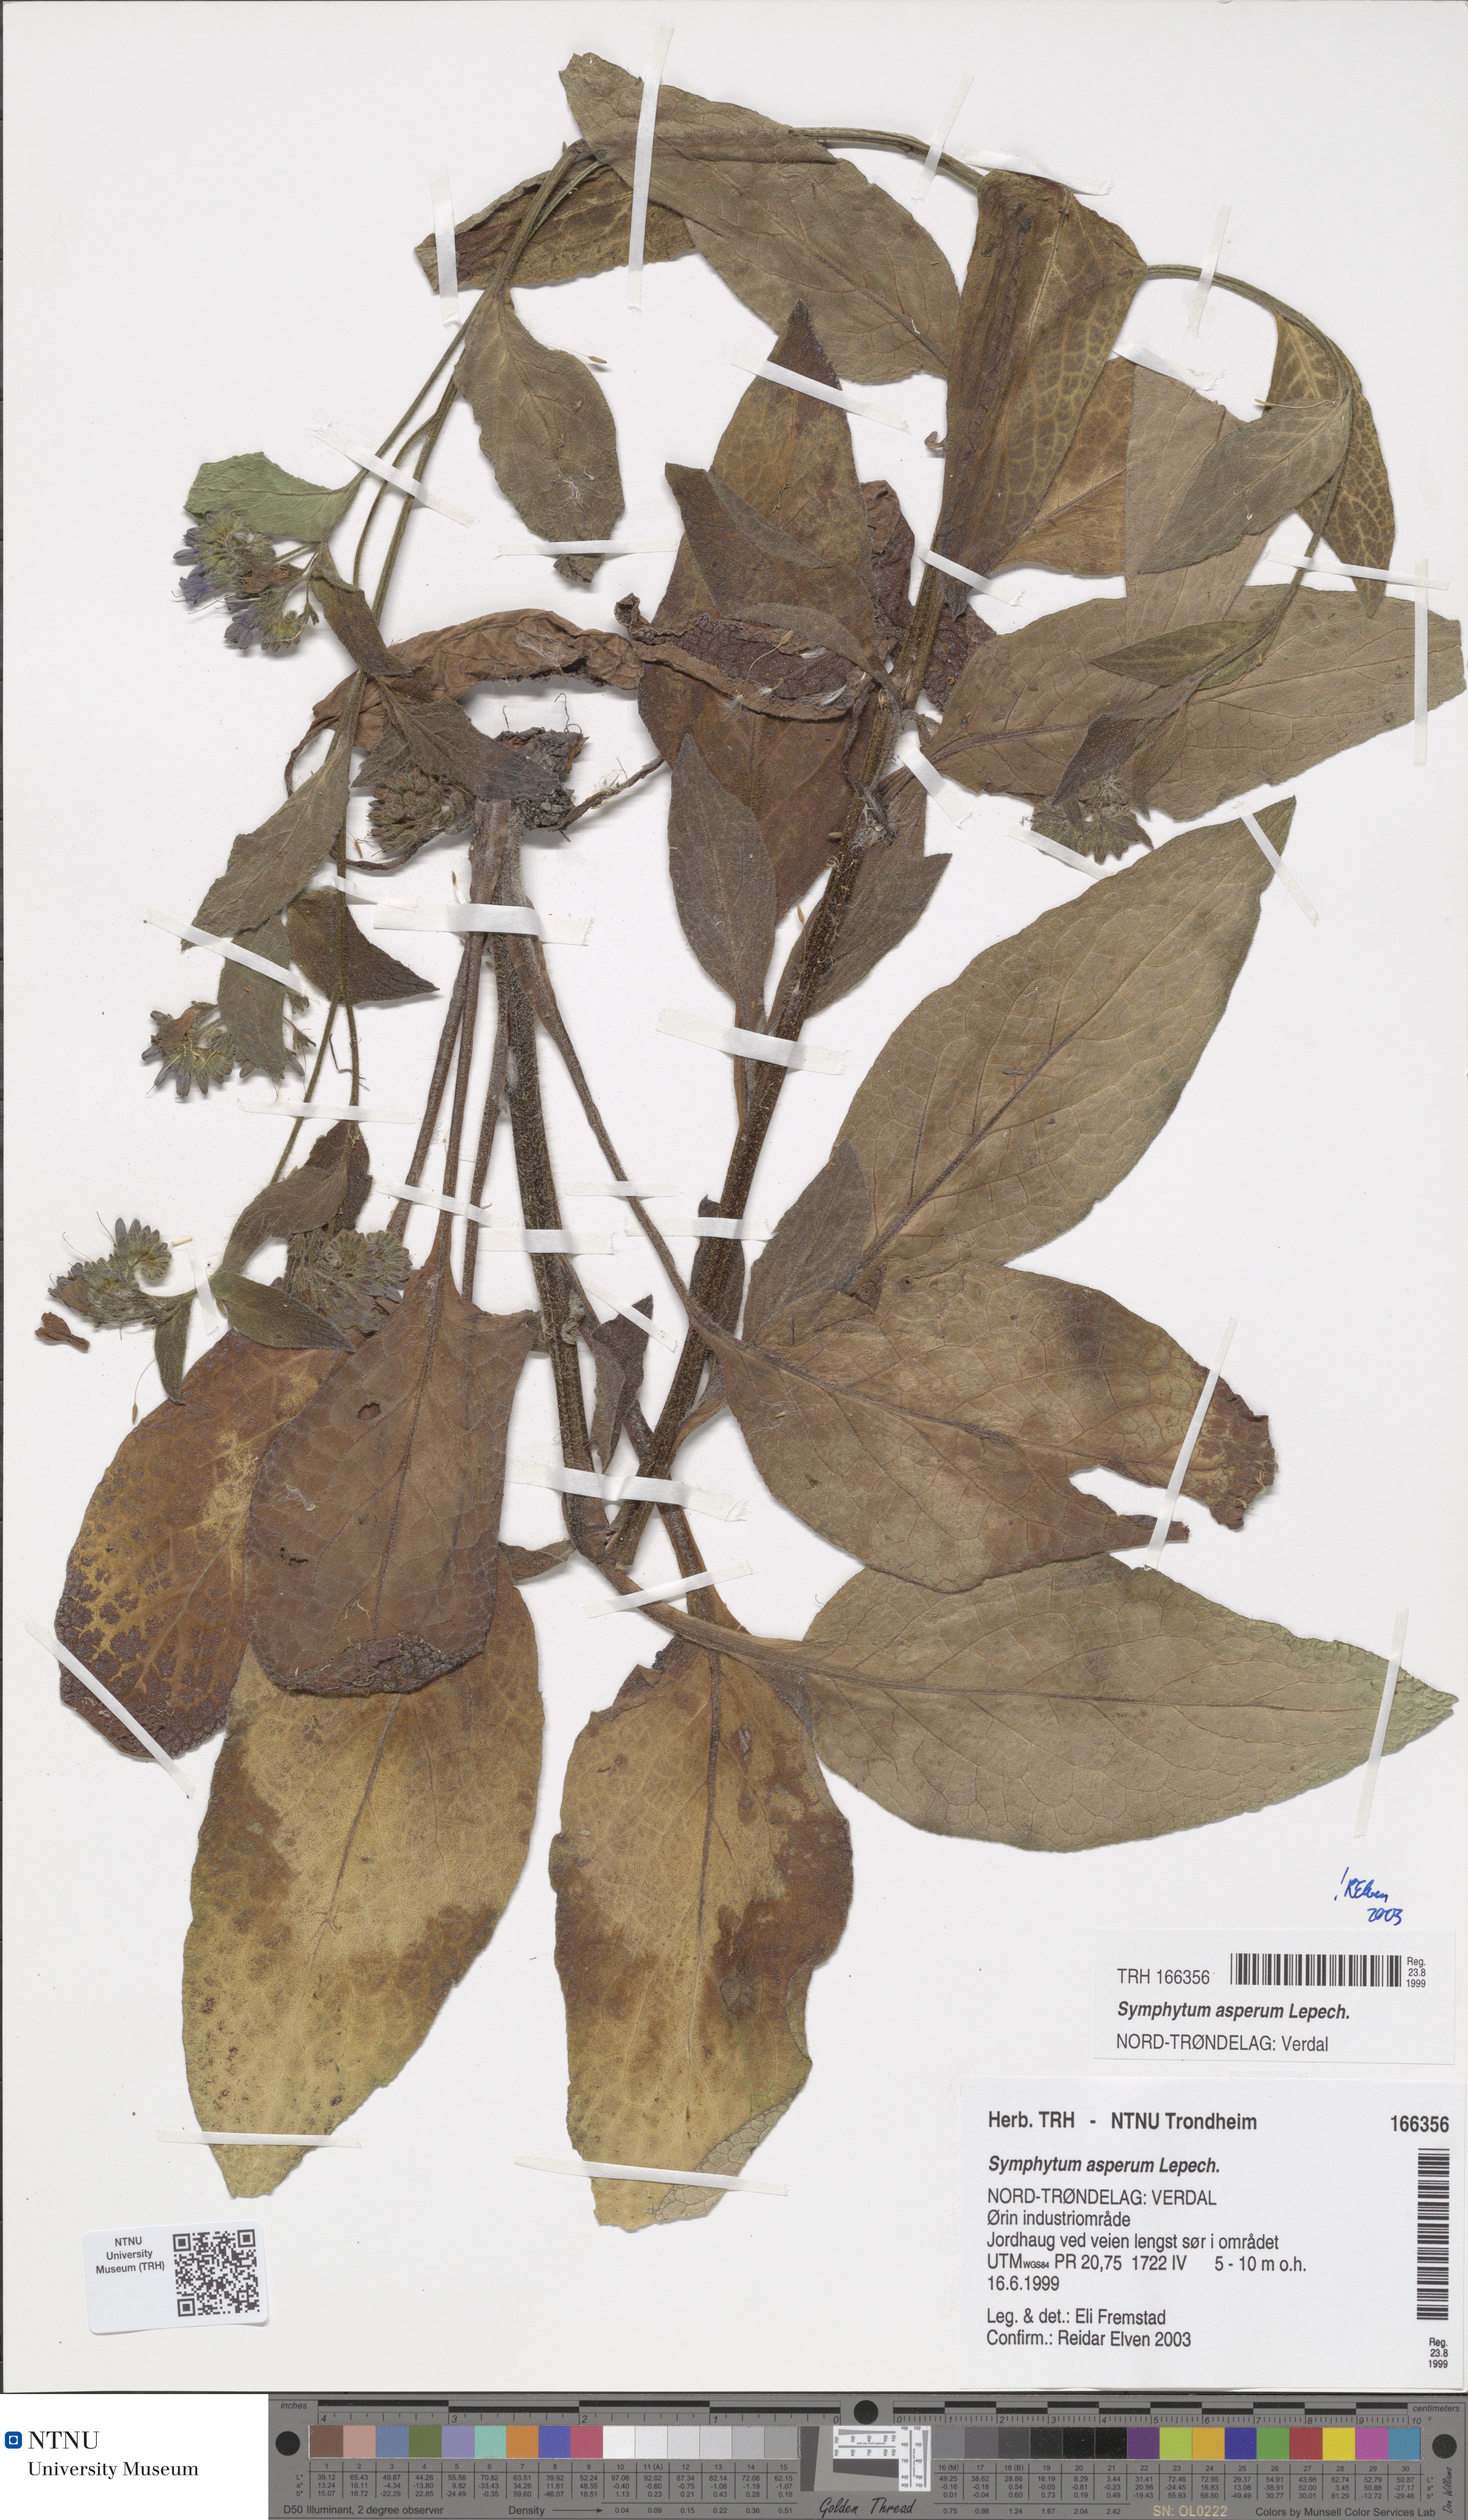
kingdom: Plantae
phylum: Tracheophyta
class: Magnoliopsida
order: Boraginales
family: Boraginaceae
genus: Symphytum
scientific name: Symphytum asperum
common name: Prickly comfrey
